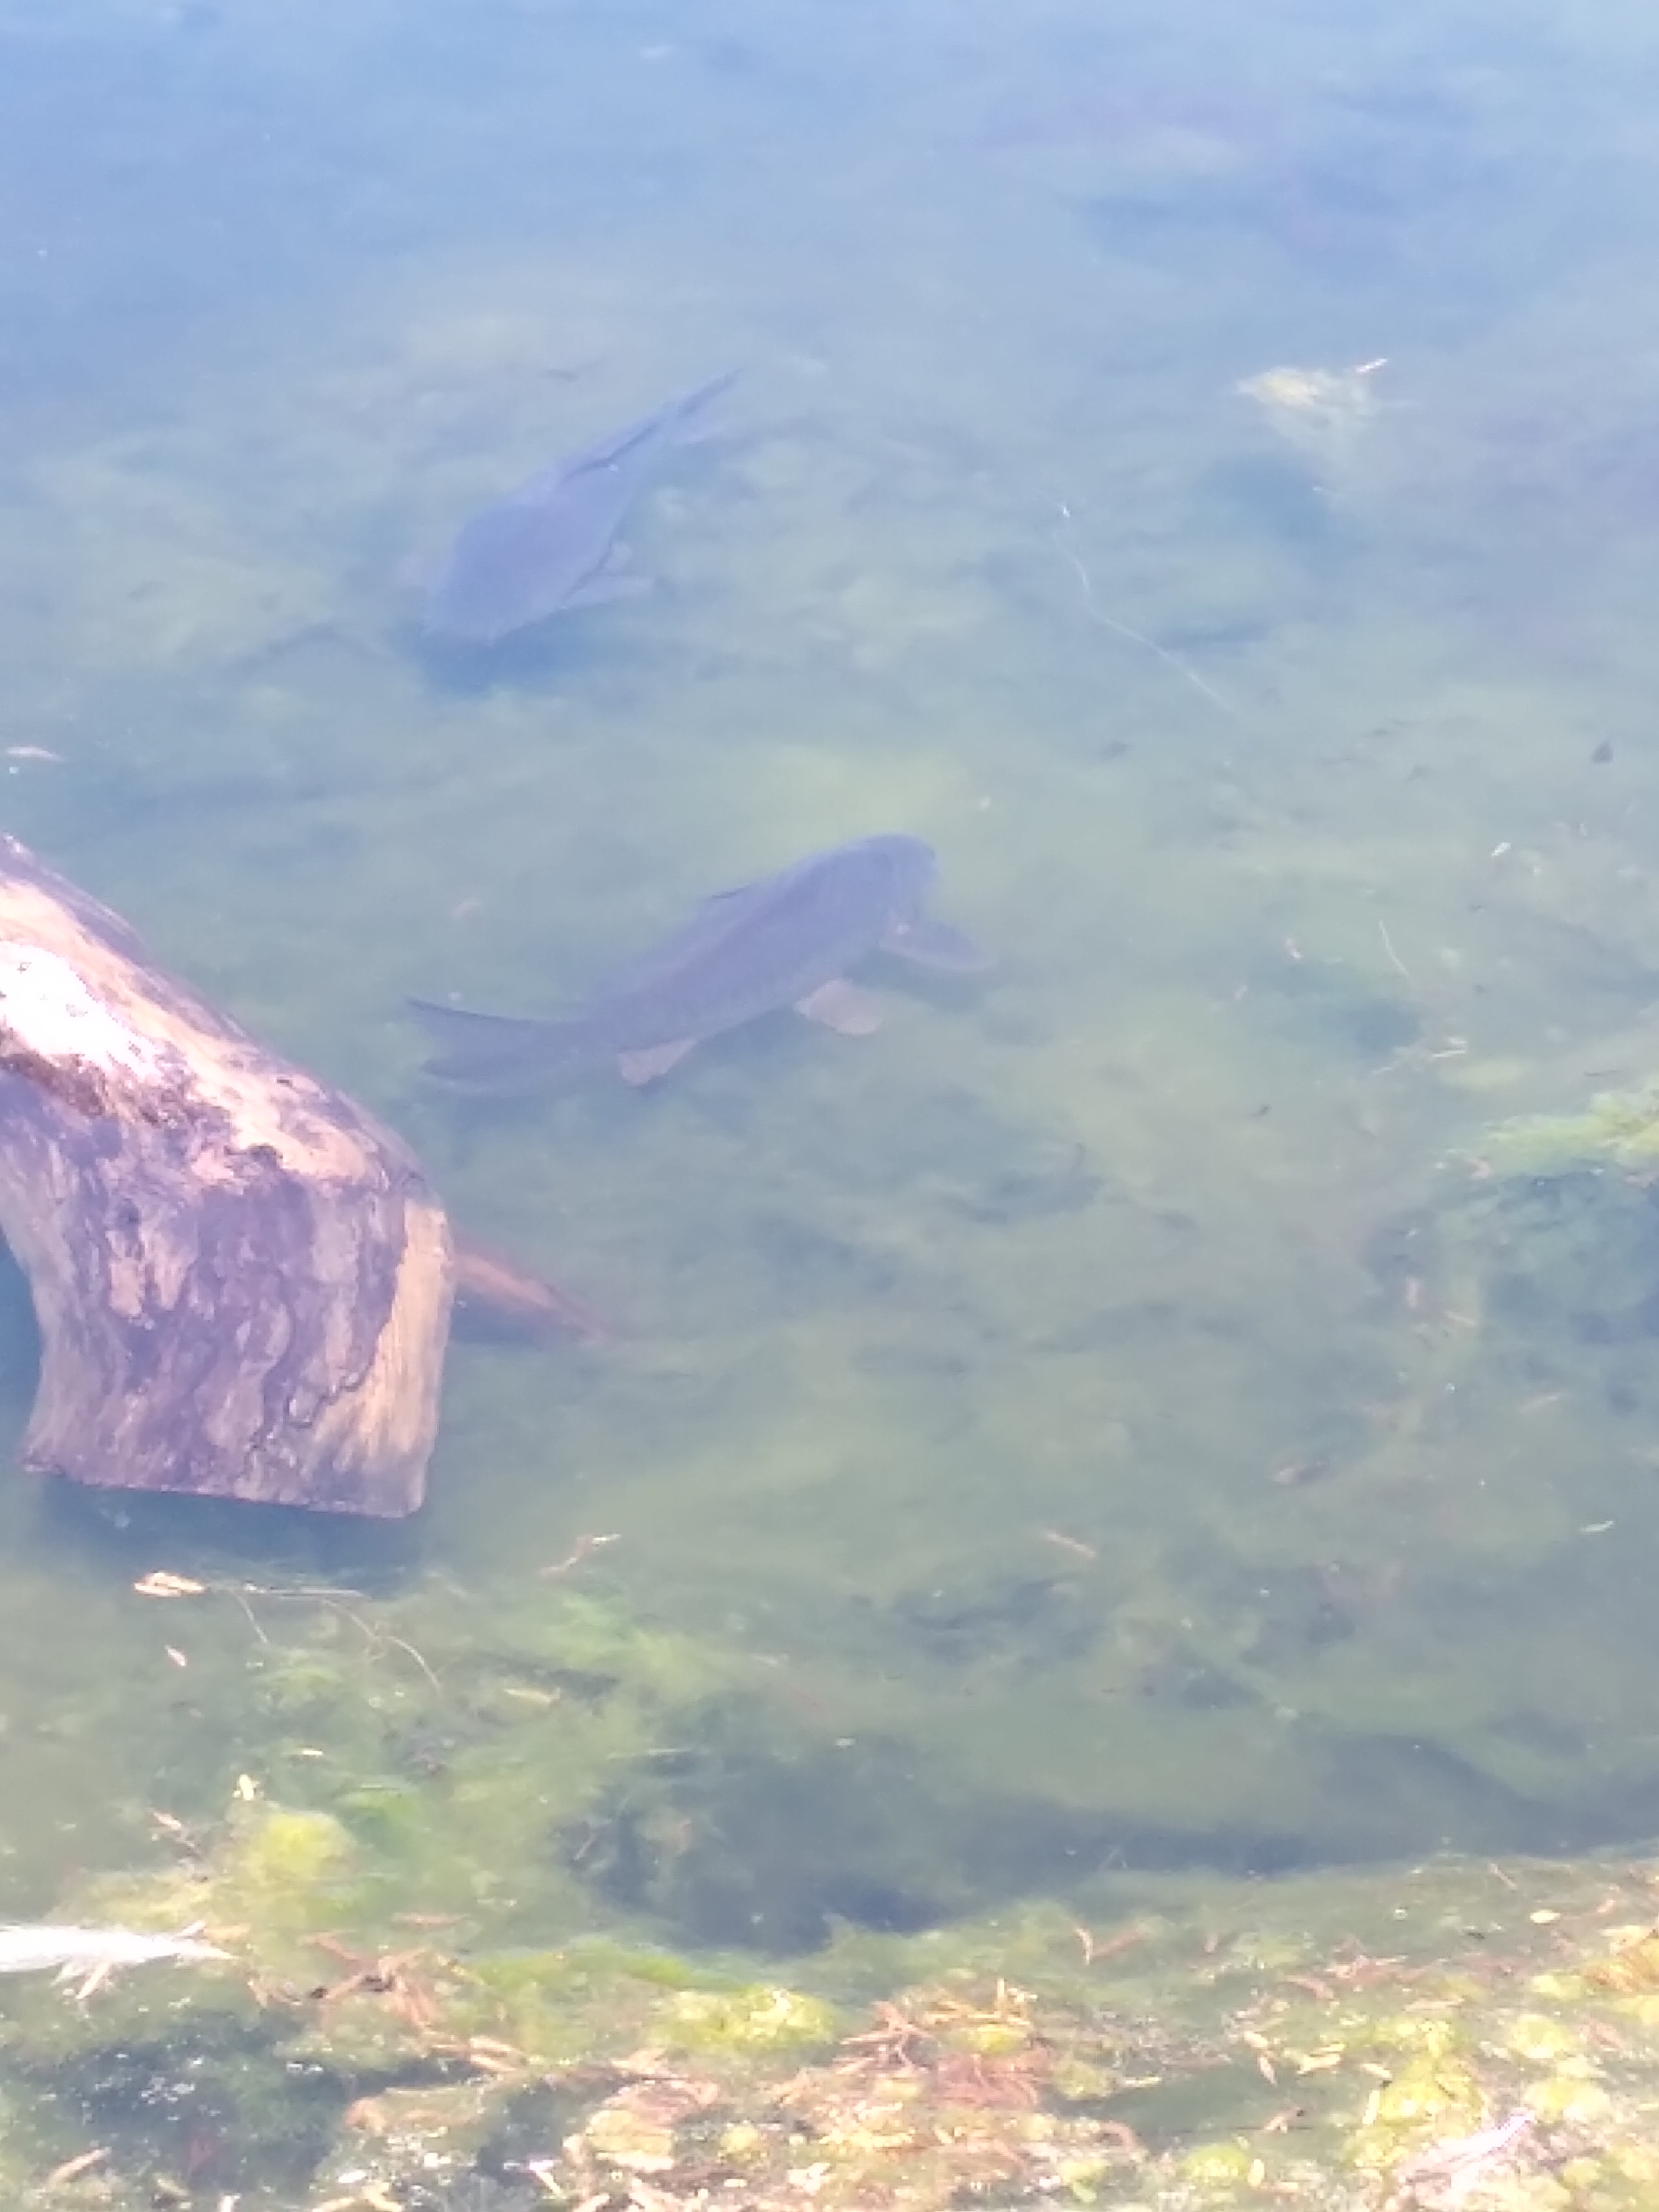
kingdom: Animalia
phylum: Chordata
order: Cypriniformes
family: Cyprinidae
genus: Cyprinus
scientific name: Cyprinus carpio
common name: Karpe
